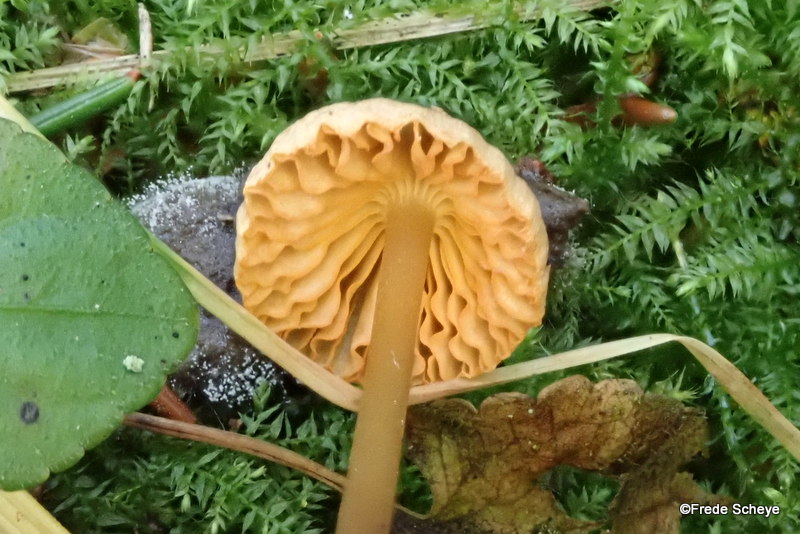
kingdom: Fungi
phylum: Basidiomycota
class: Agaricomycetes
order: Agaricales
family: Mycenaceae
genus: Mycena
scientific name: Mycena aurantiomarginata
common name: orangeægget huesvamp
